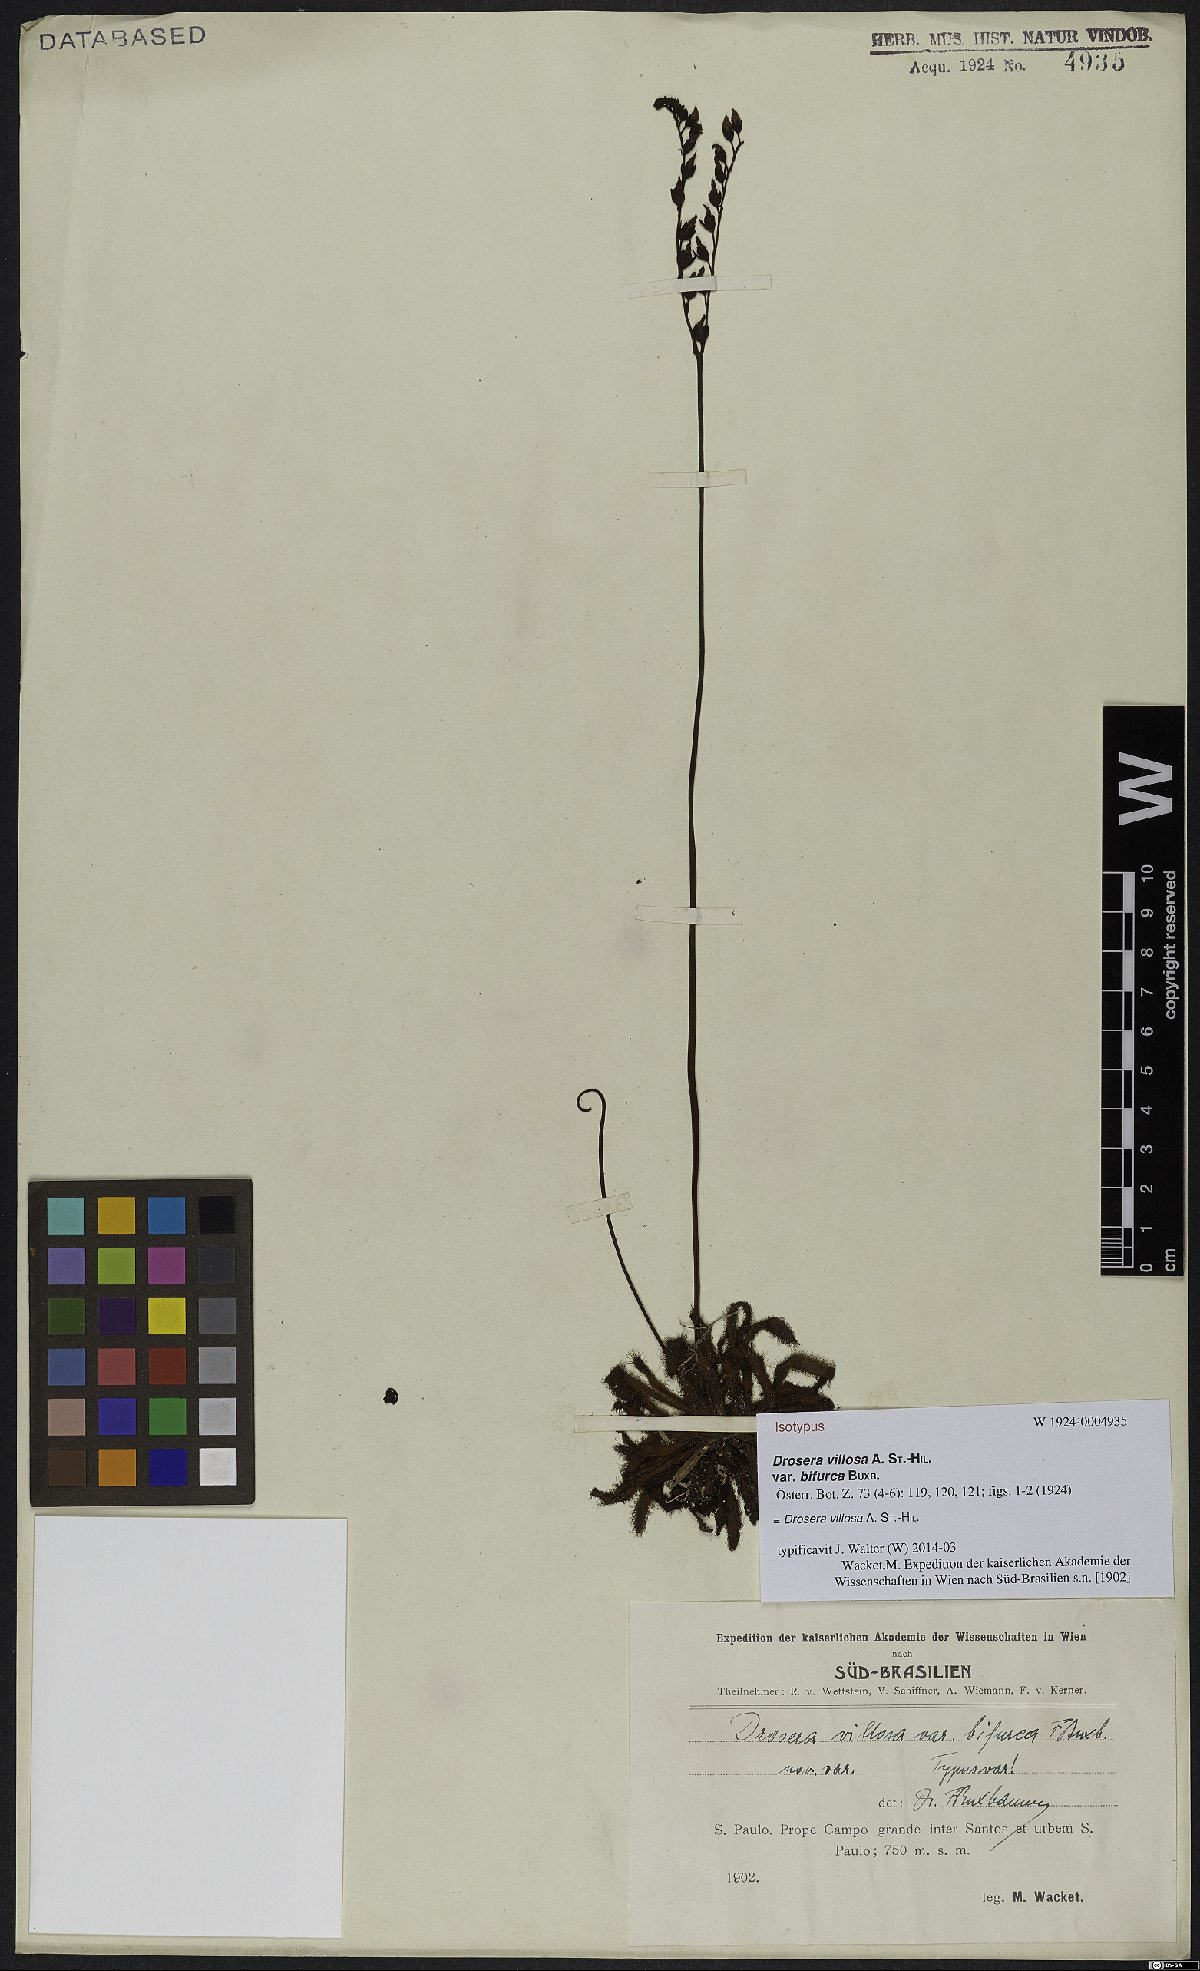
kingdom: Plantae
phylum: Tracheophyta
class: Magnoliopsida
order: Caryophyllales
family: Droseraceae
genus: Drosera
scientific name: Drosera latifolia
